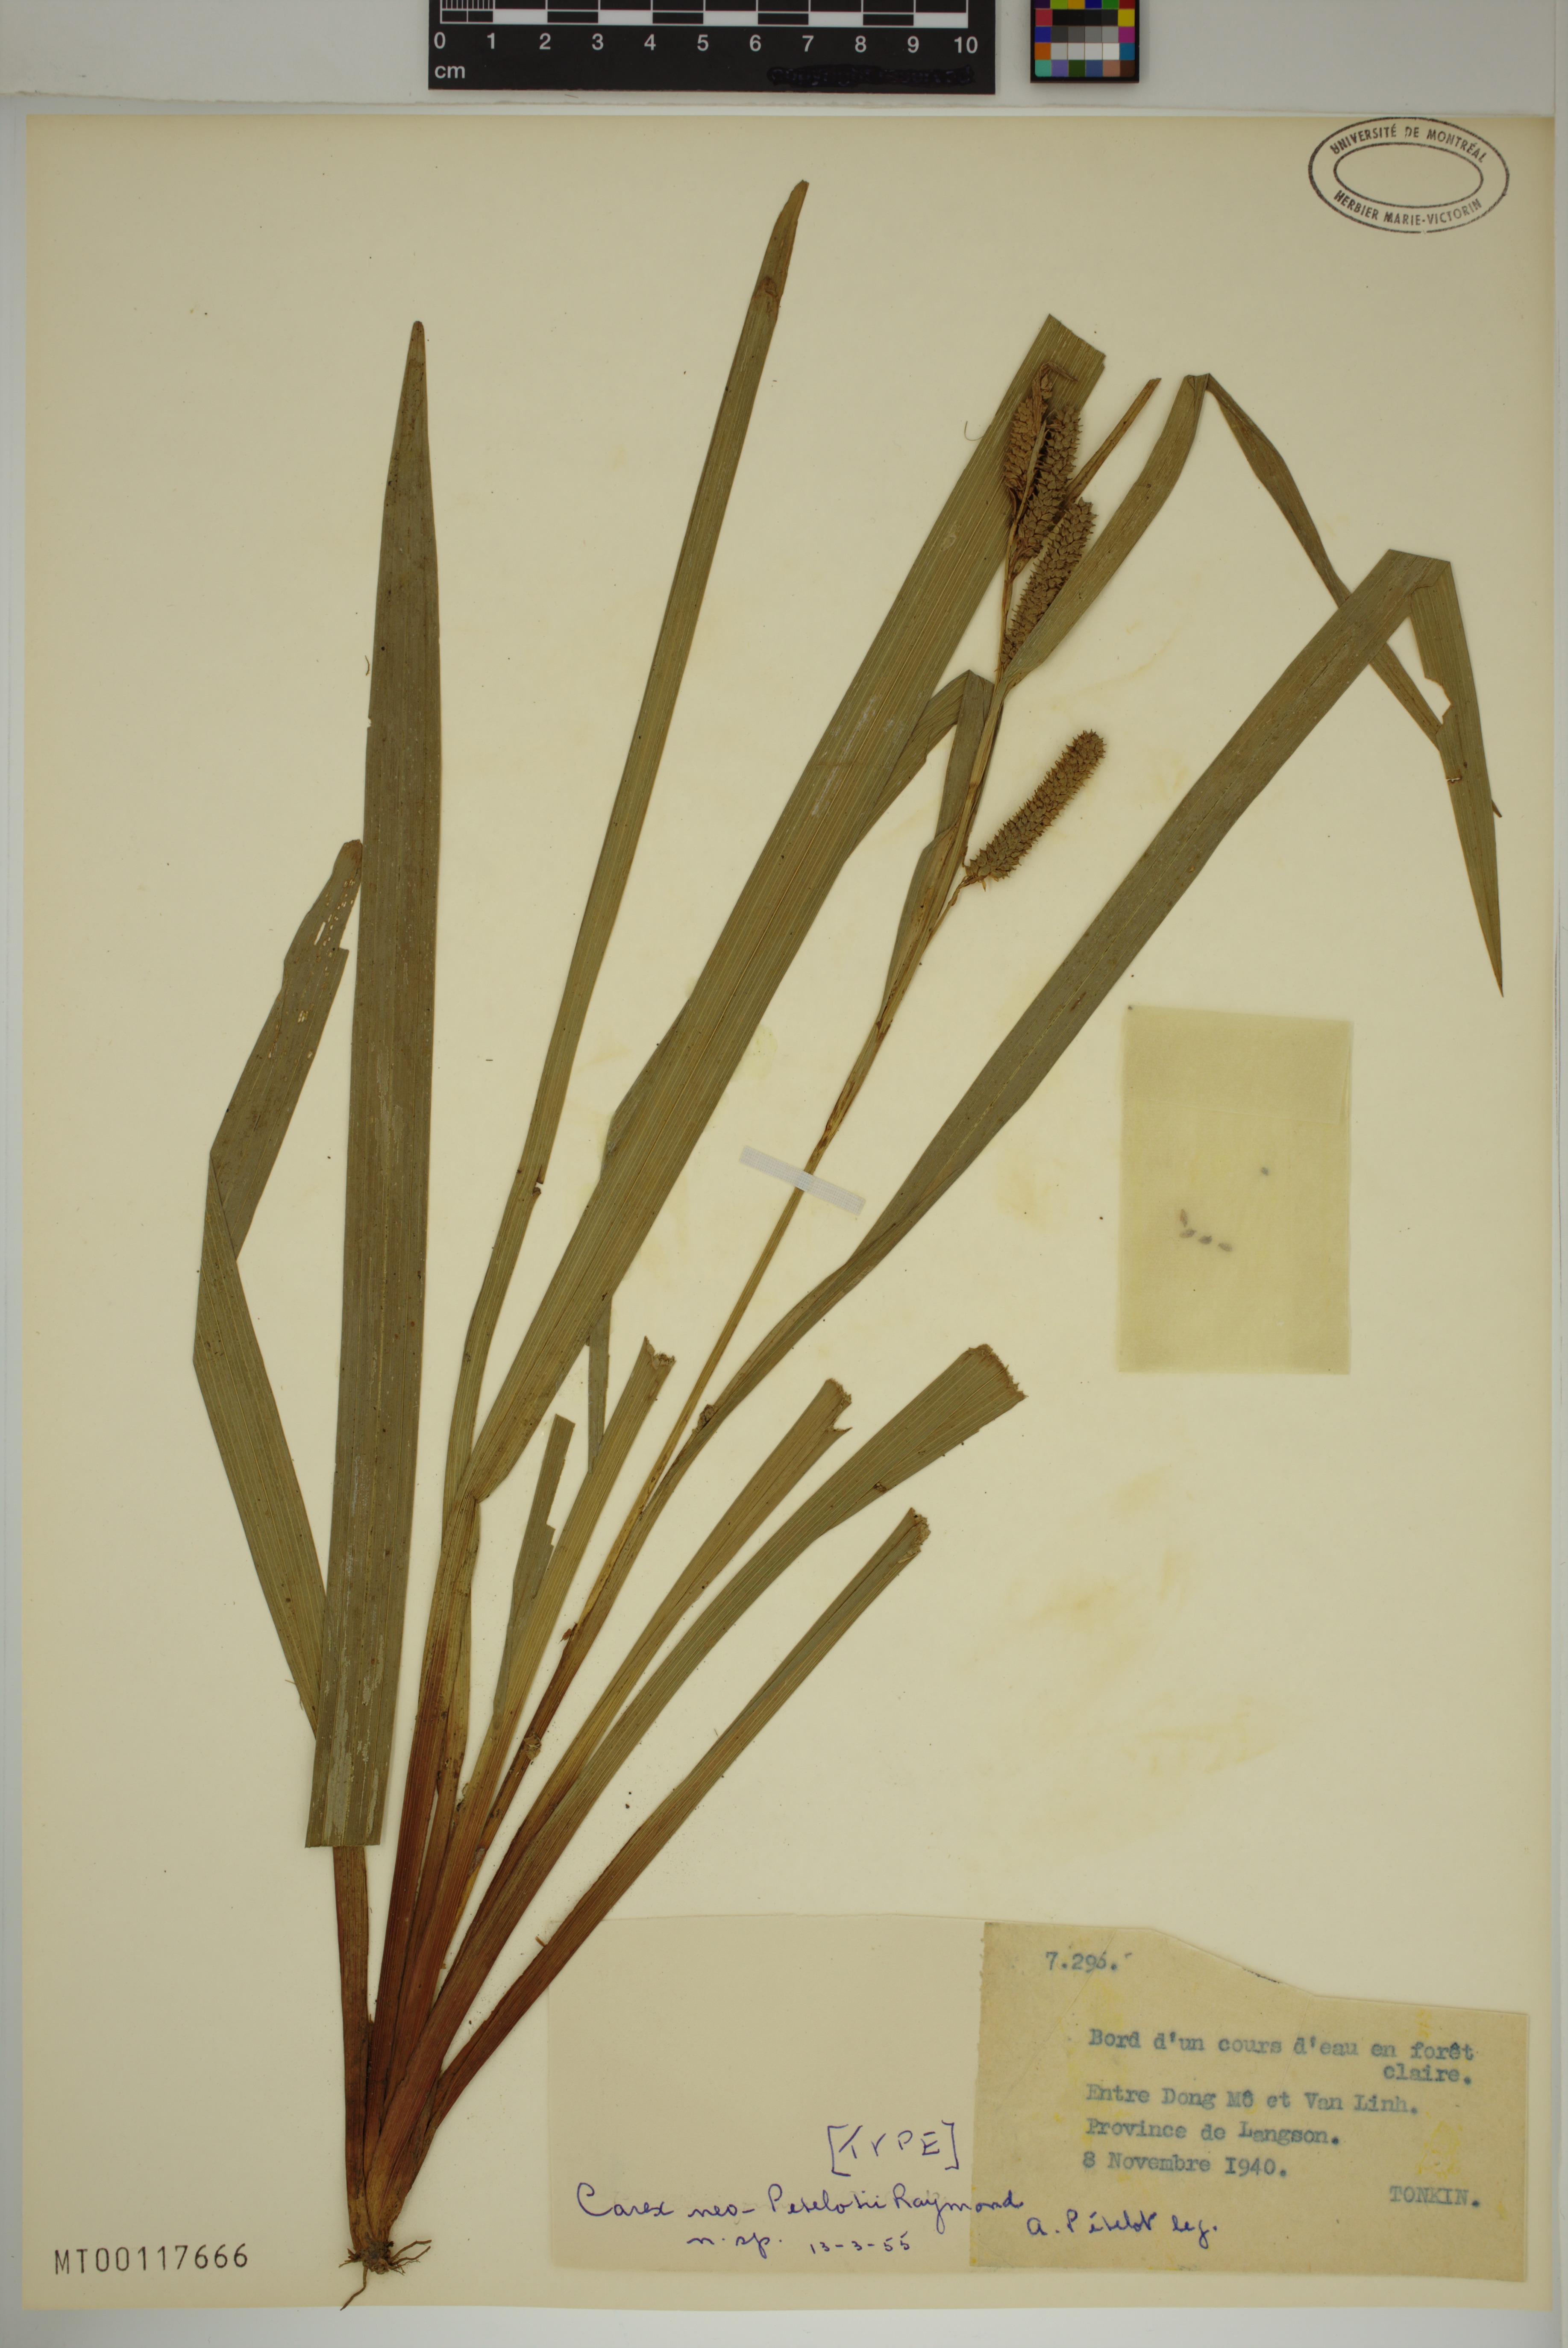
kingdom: Plantae
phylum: Tracheophyta
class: Liliopsida
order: Poales
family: Cyperaceae
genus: Carex
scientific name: Carex neopetelotii
